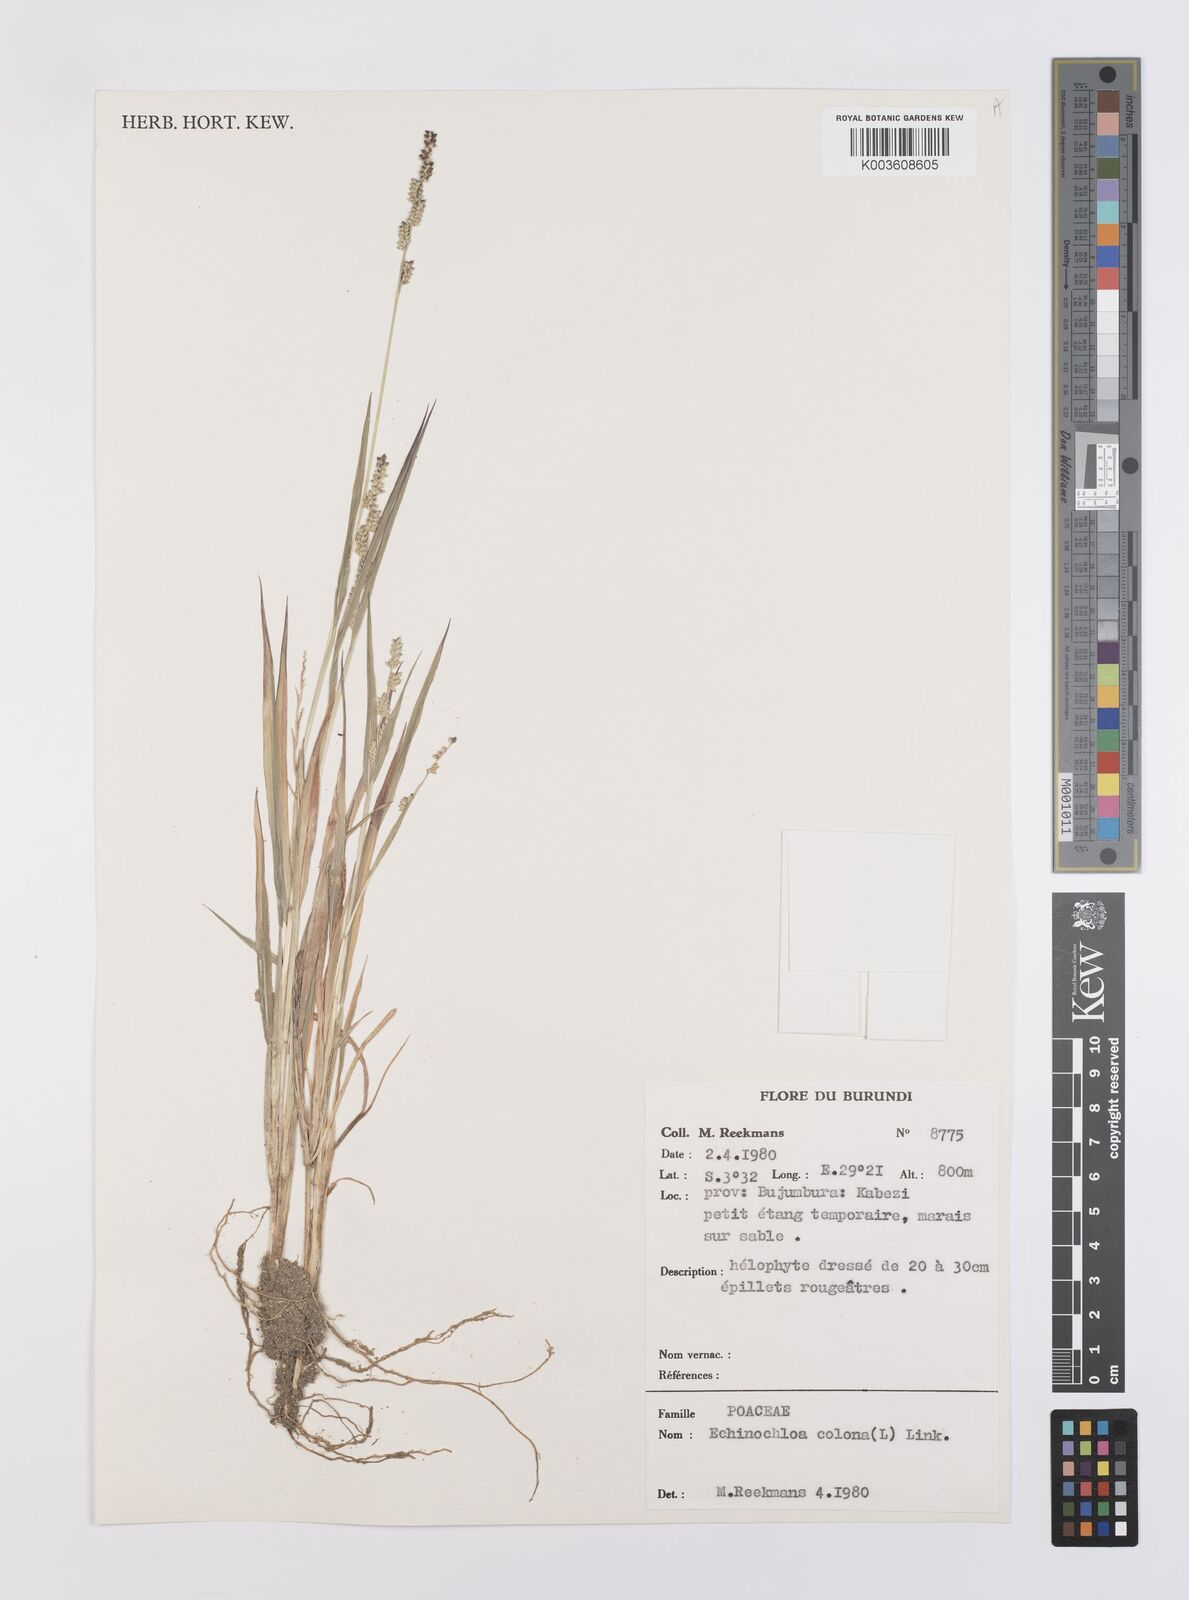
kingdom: Plantae
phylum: Tracheophyta
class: Liliopsida
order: Poales
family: Poaceae
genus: Echinochloa
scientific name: Echinochloa colonum
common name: Jungle rice
